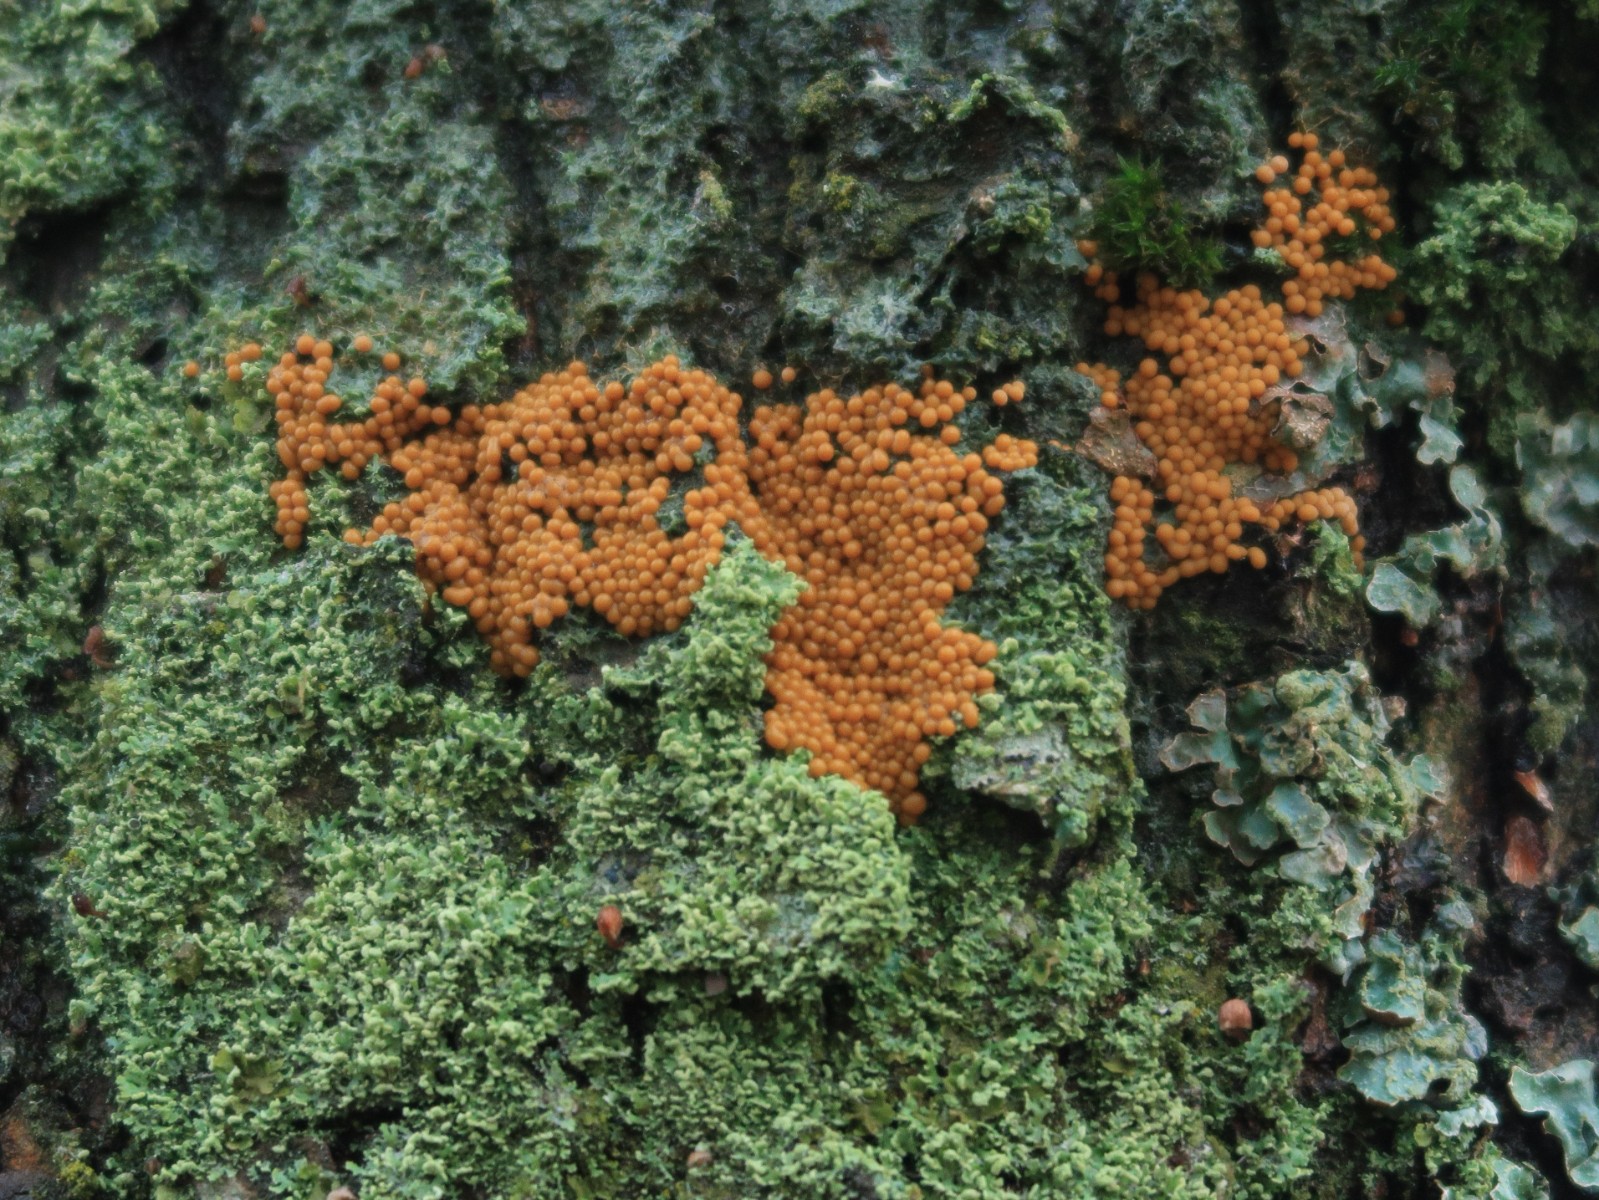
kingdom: Protozoa
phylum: Mycetozoa
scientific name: Mycetozoa
